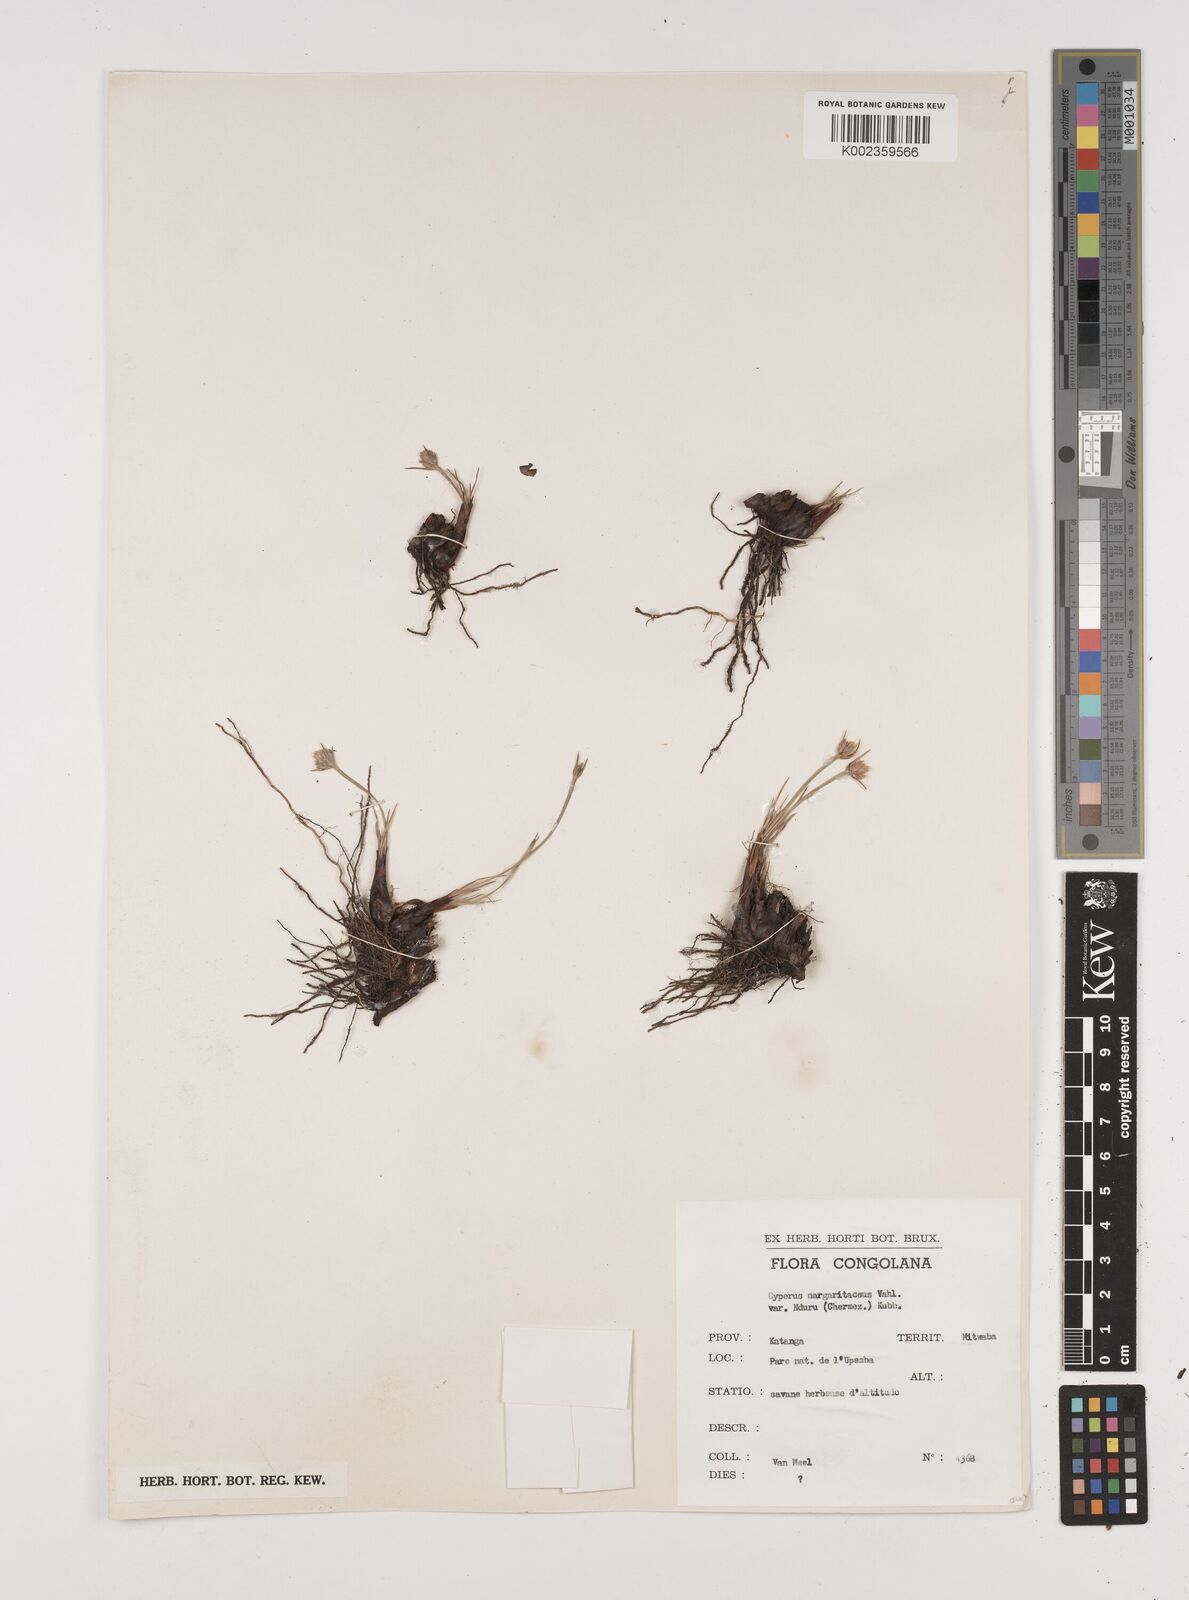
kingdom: Plantae
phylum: Tracheophyta
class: Liliopsida
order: Poales
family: Cyperaceae
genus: Cyperus
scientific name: Cyperus nduru
